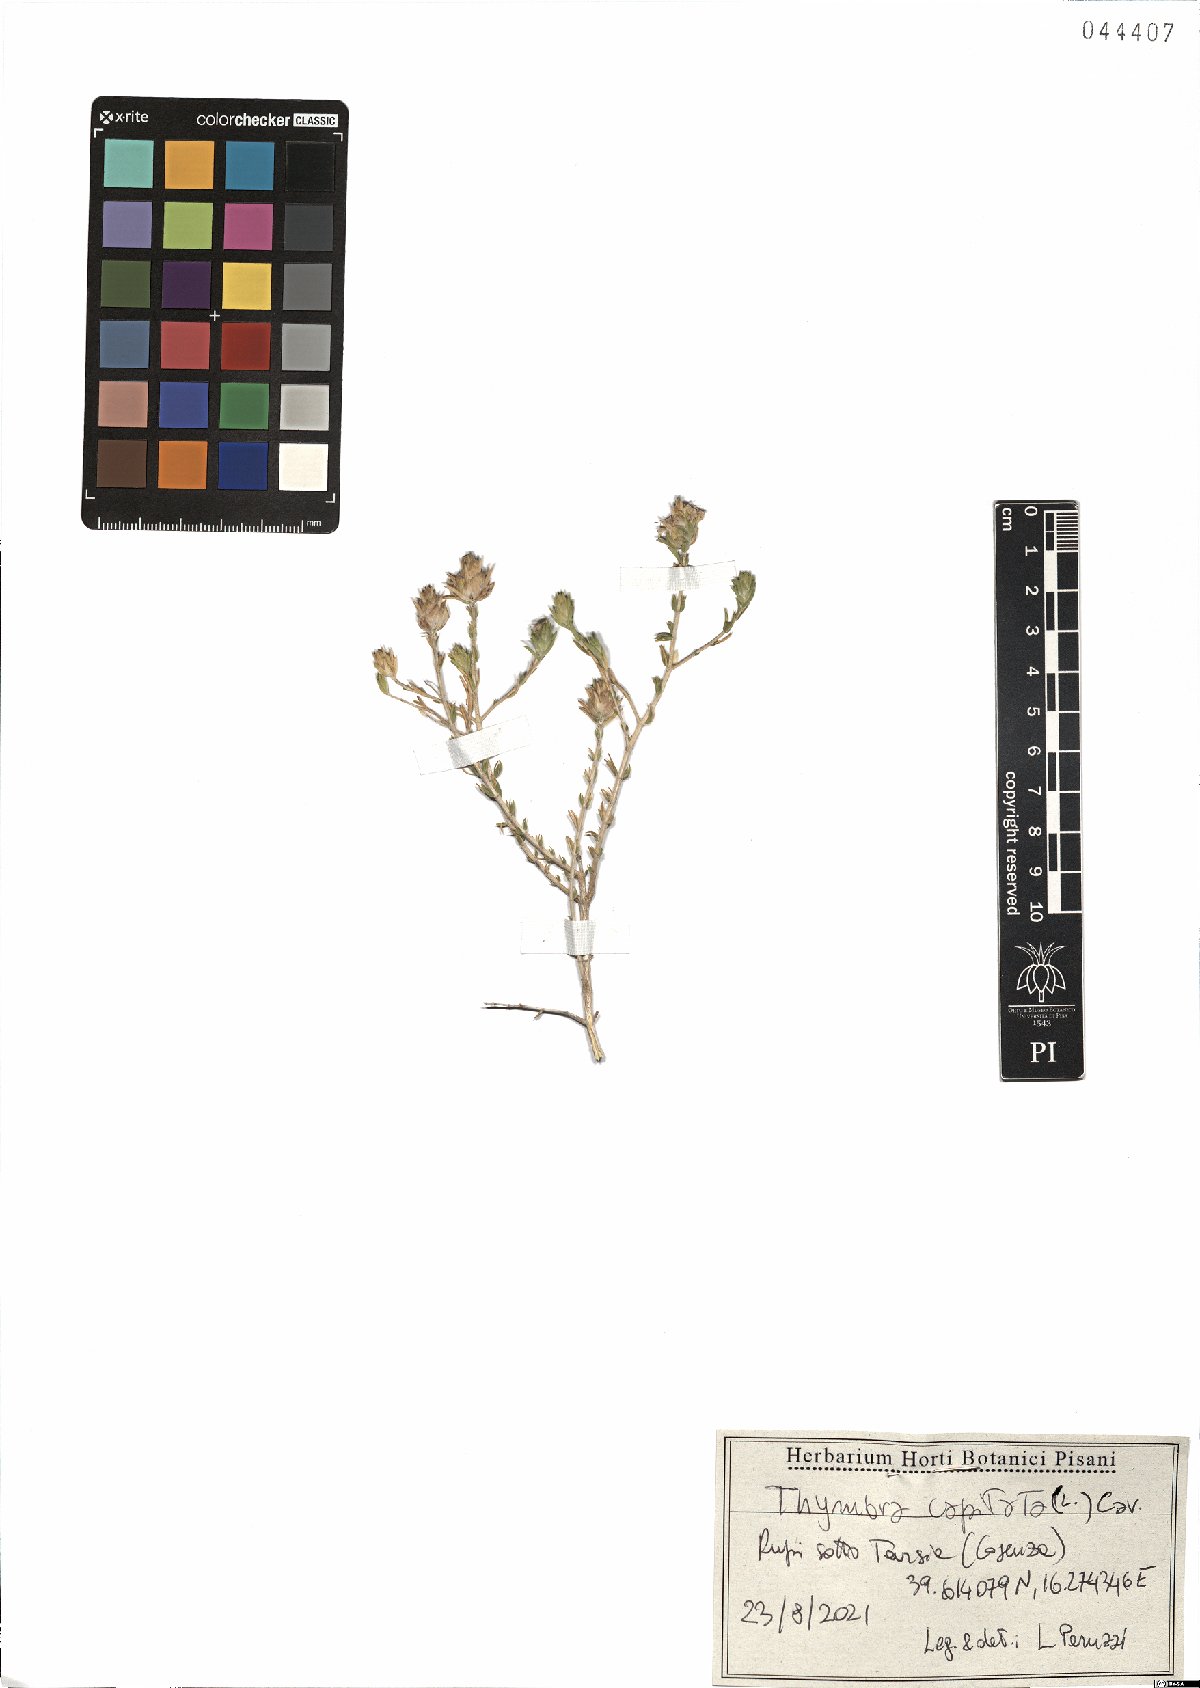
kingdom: Plantae
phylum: Tracheophyta
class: Magnoliopsida
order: Lamiales
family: Lamiaceae
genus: Thymbra
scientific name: Thymbra capitata
